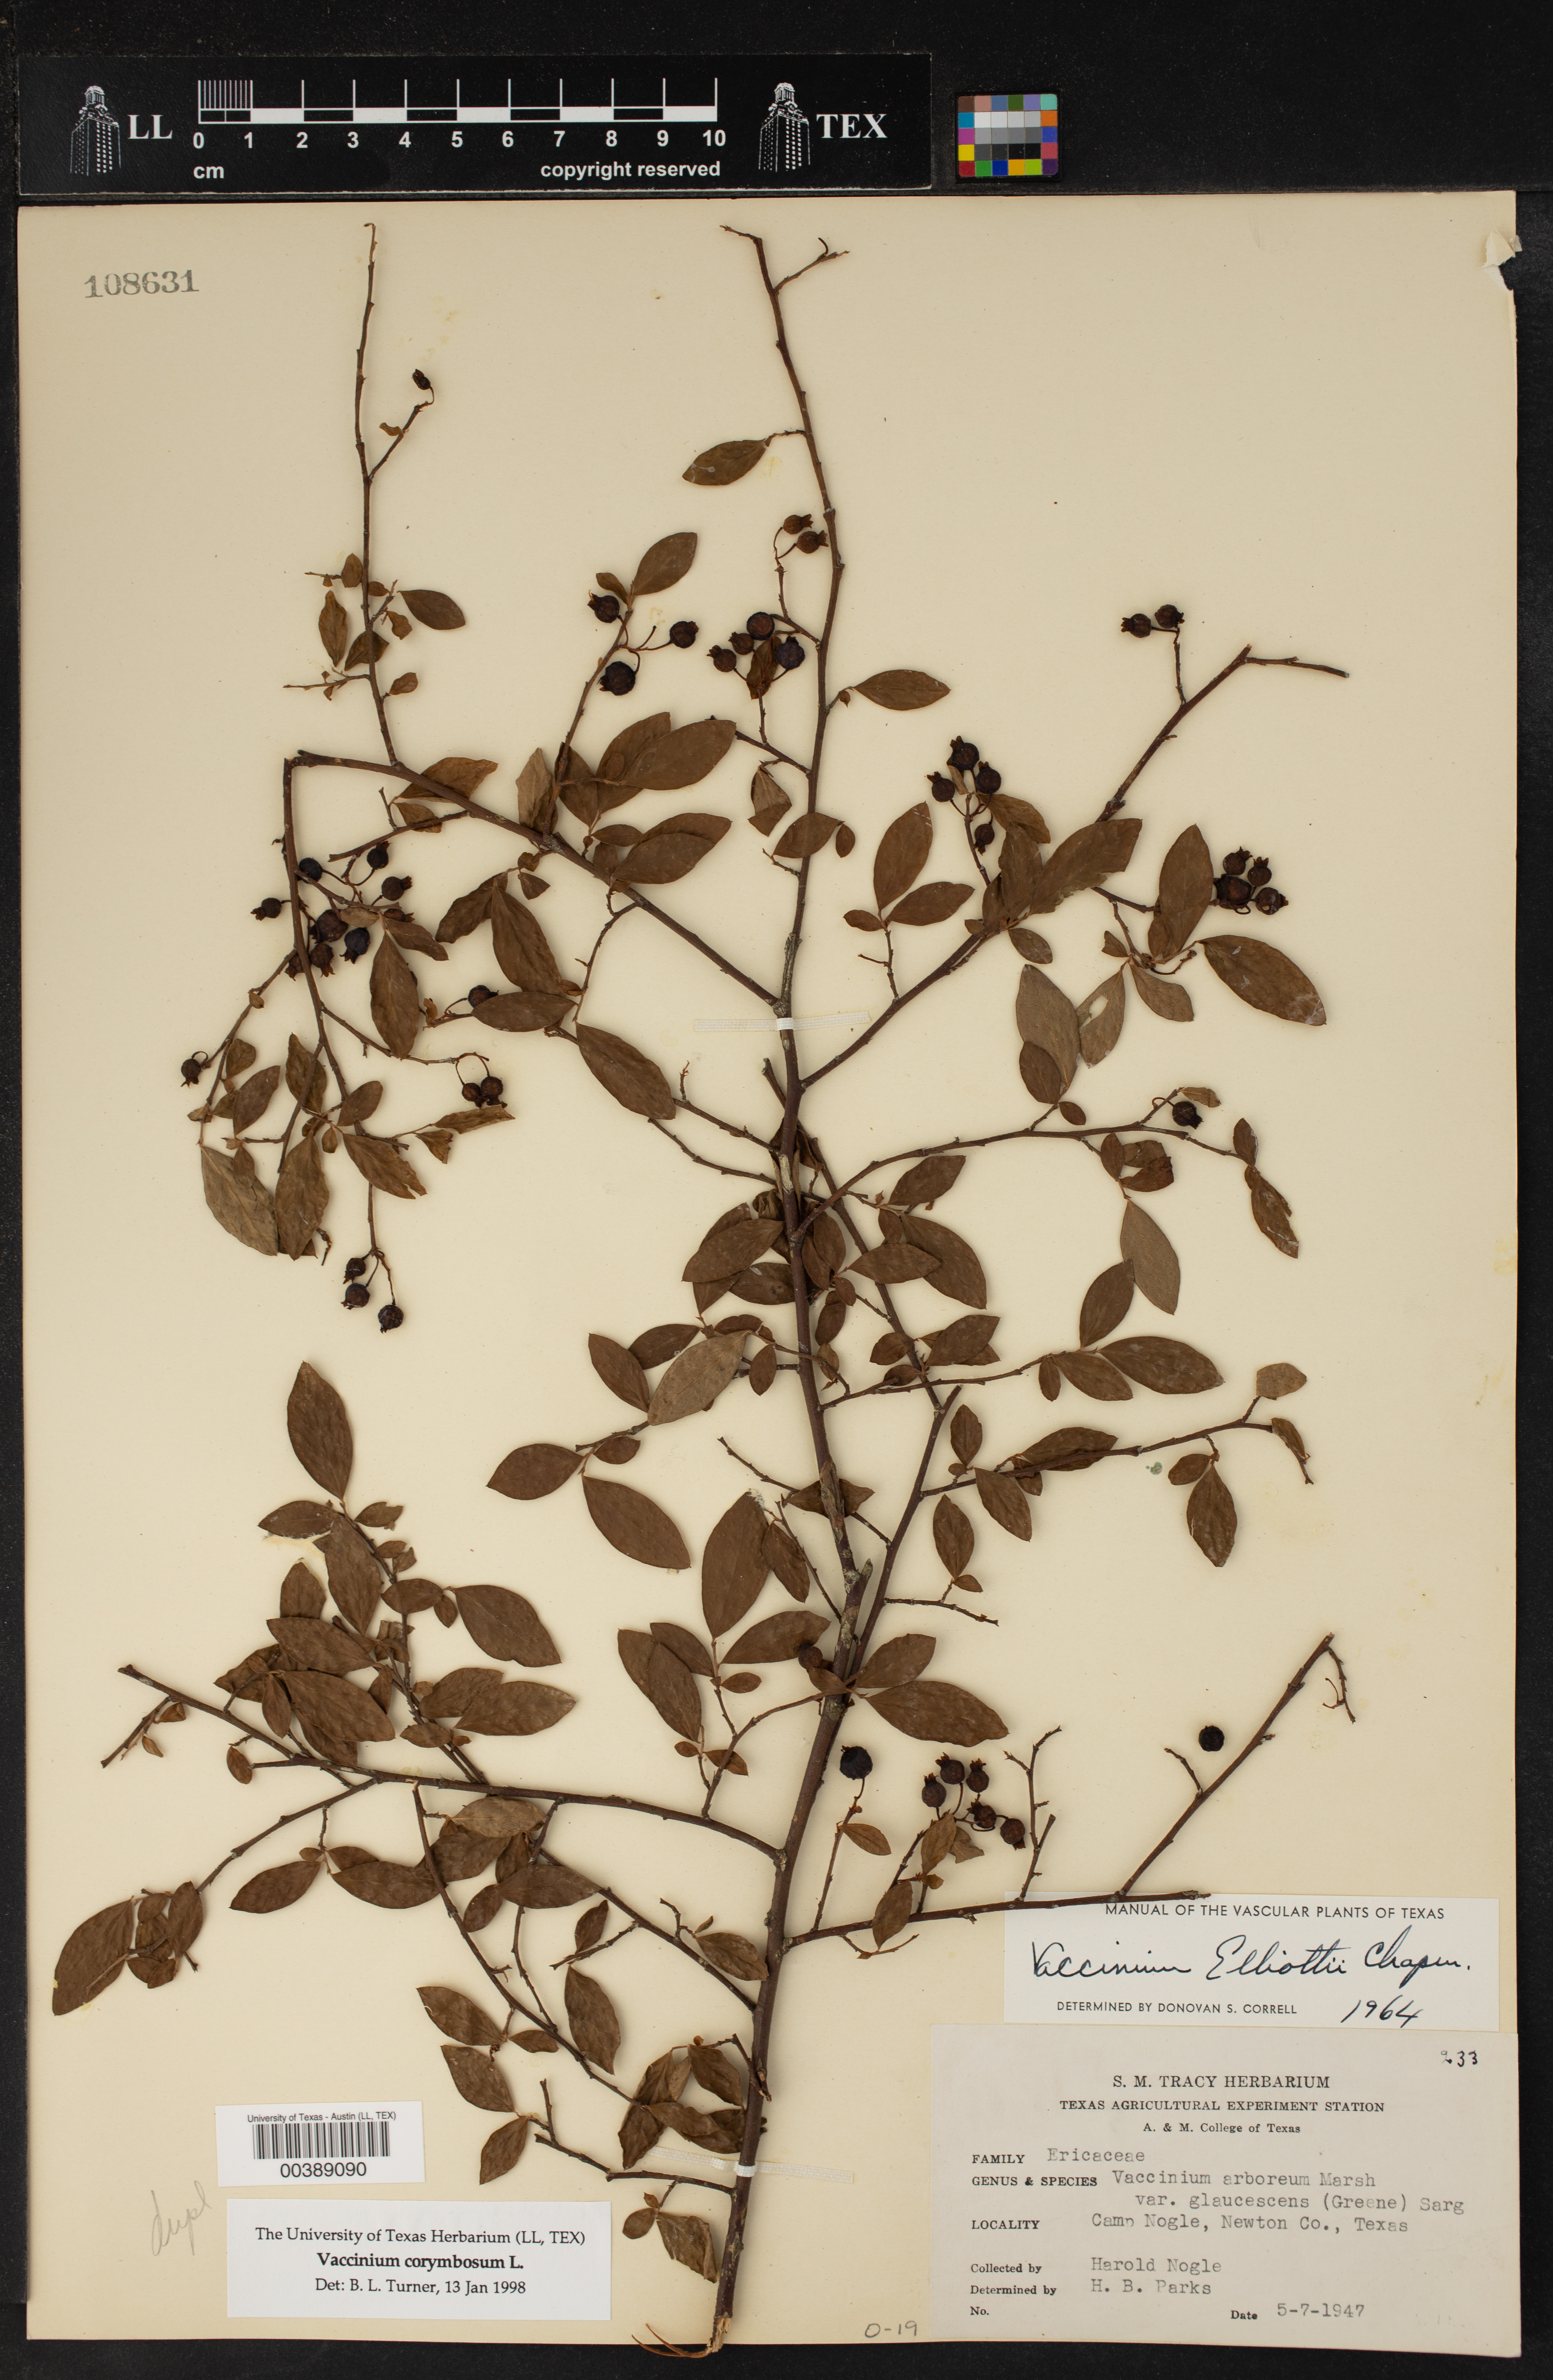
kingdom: Plantae
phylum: Tracheophyta
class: Magnoliopsida
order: Ericales
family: Ericaceae
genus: Vaccinium
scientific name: Vaccinium corymbosum
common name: Blueberry
